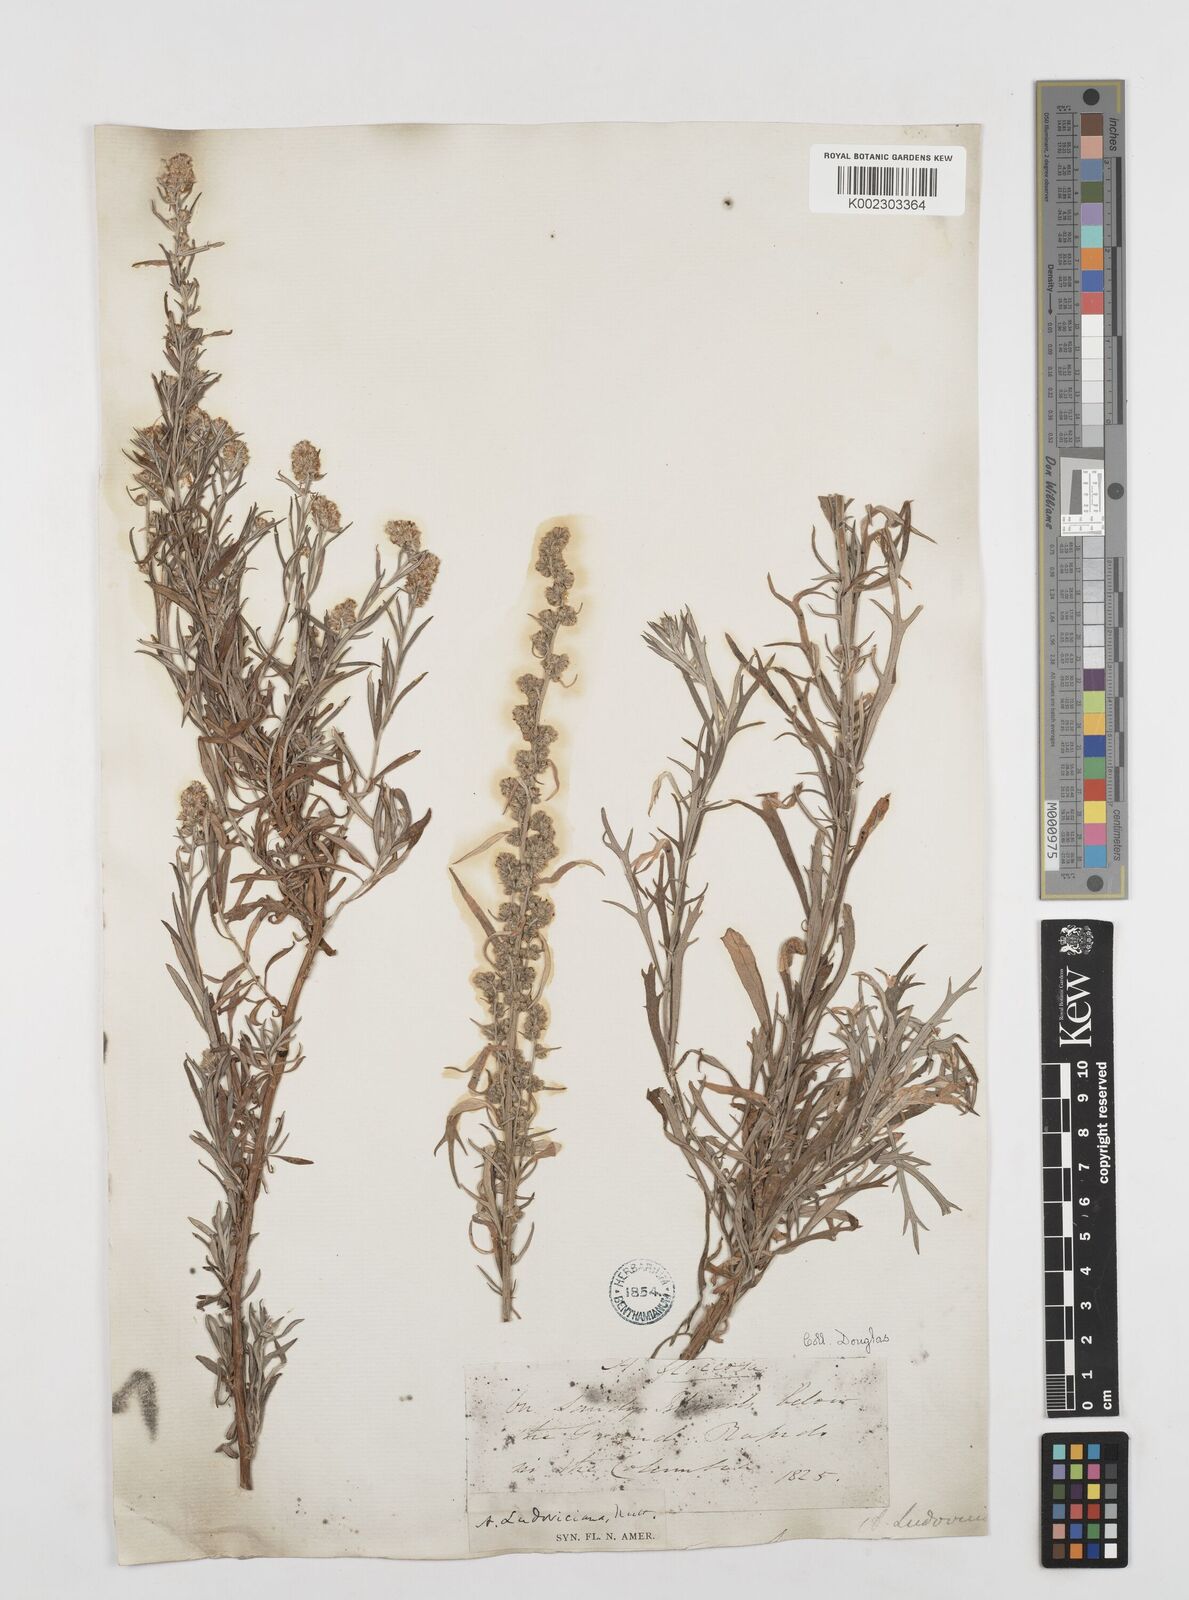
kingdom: Plantae
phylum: Tracheophyta
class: Magnoliopsida
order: Asterales
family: Asteraceae
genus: Artemisia
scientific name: Artemisia
